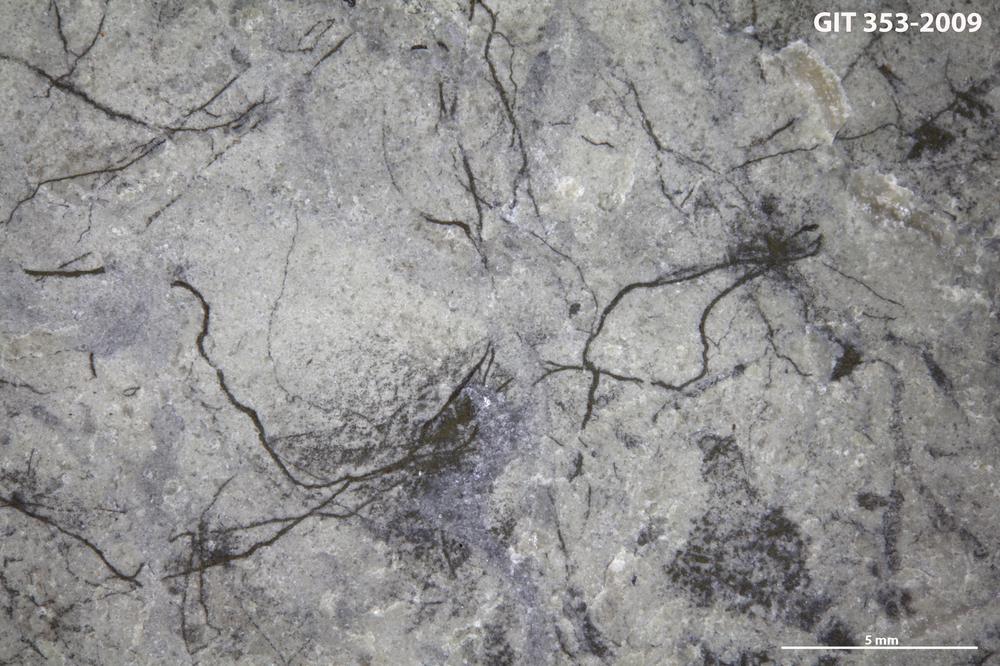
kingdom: Plantae
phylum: Tracheophyta
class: Pinopsida
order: Pinales
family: Cupressaceae
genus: Platycladus
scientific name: Platycladus
